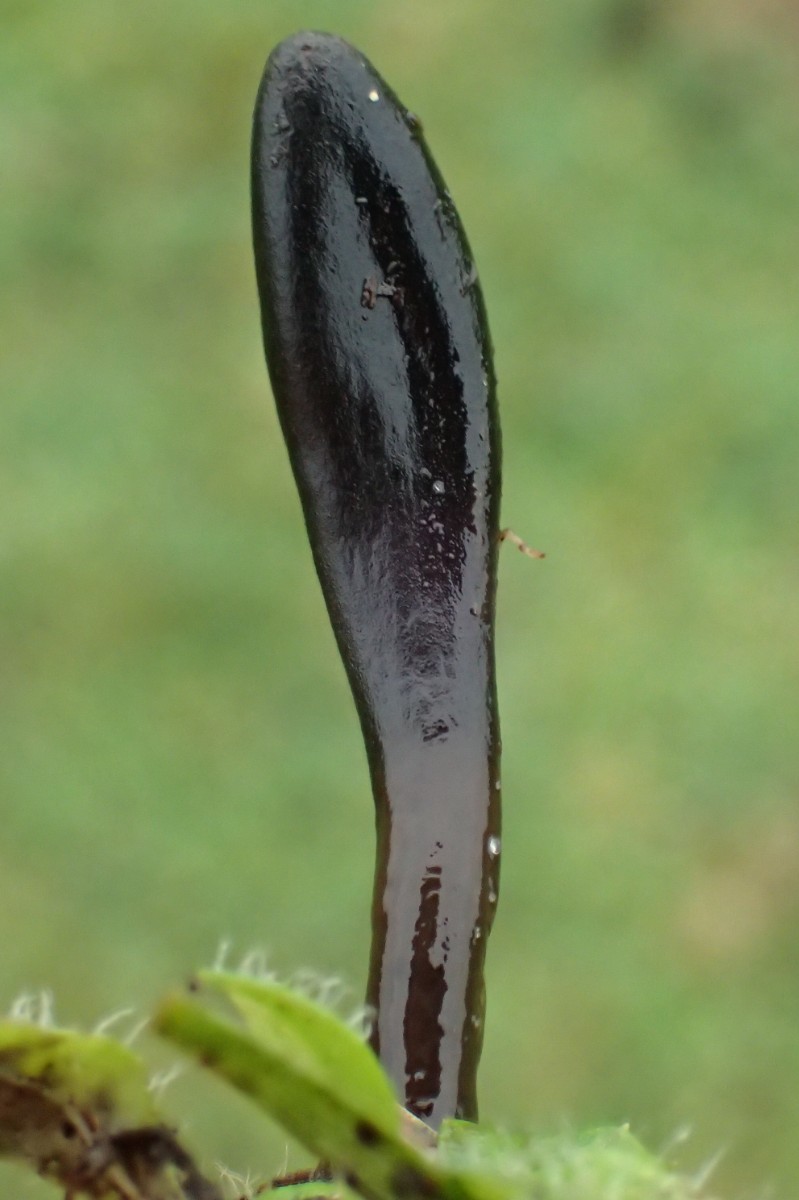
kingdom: Fungi
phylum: Ascomycota
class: Geoglossomycetes
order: Geoglossales
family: Geoglossaceae
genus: Glutinoglossum
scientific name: Glutinoglossum glutinosum
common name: slimet jordtunge
